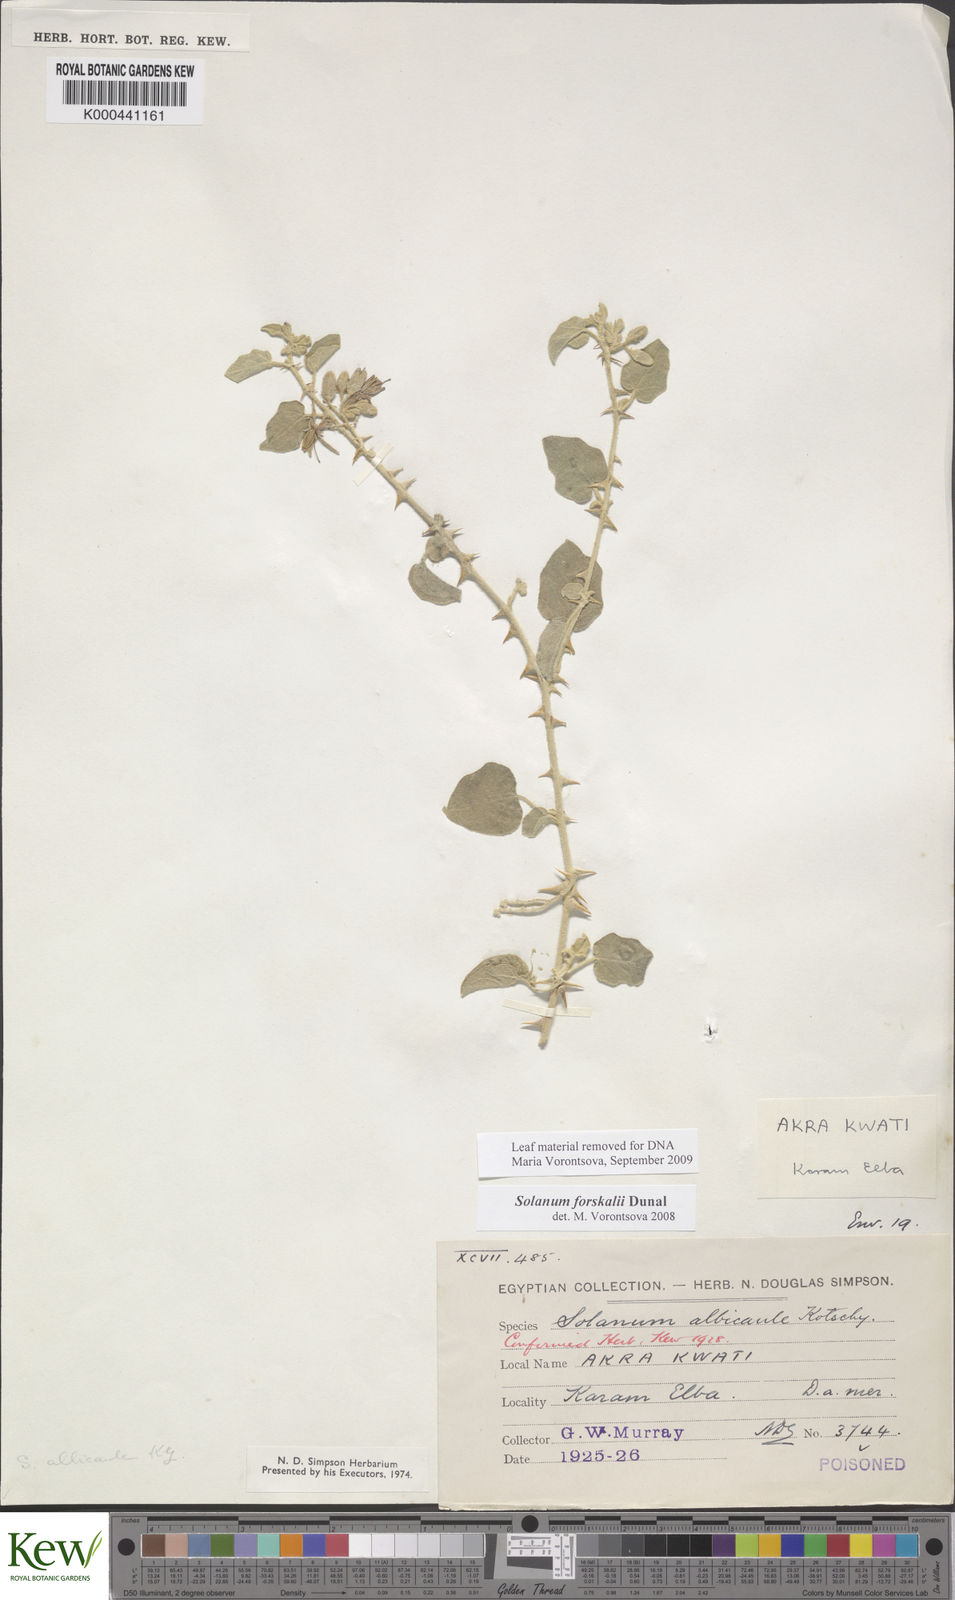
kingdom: Plantae
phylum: Tracheophyta
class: Magnoliopsida
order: Solanales
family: Solanaceae
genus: Solanum
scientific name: Solanum
